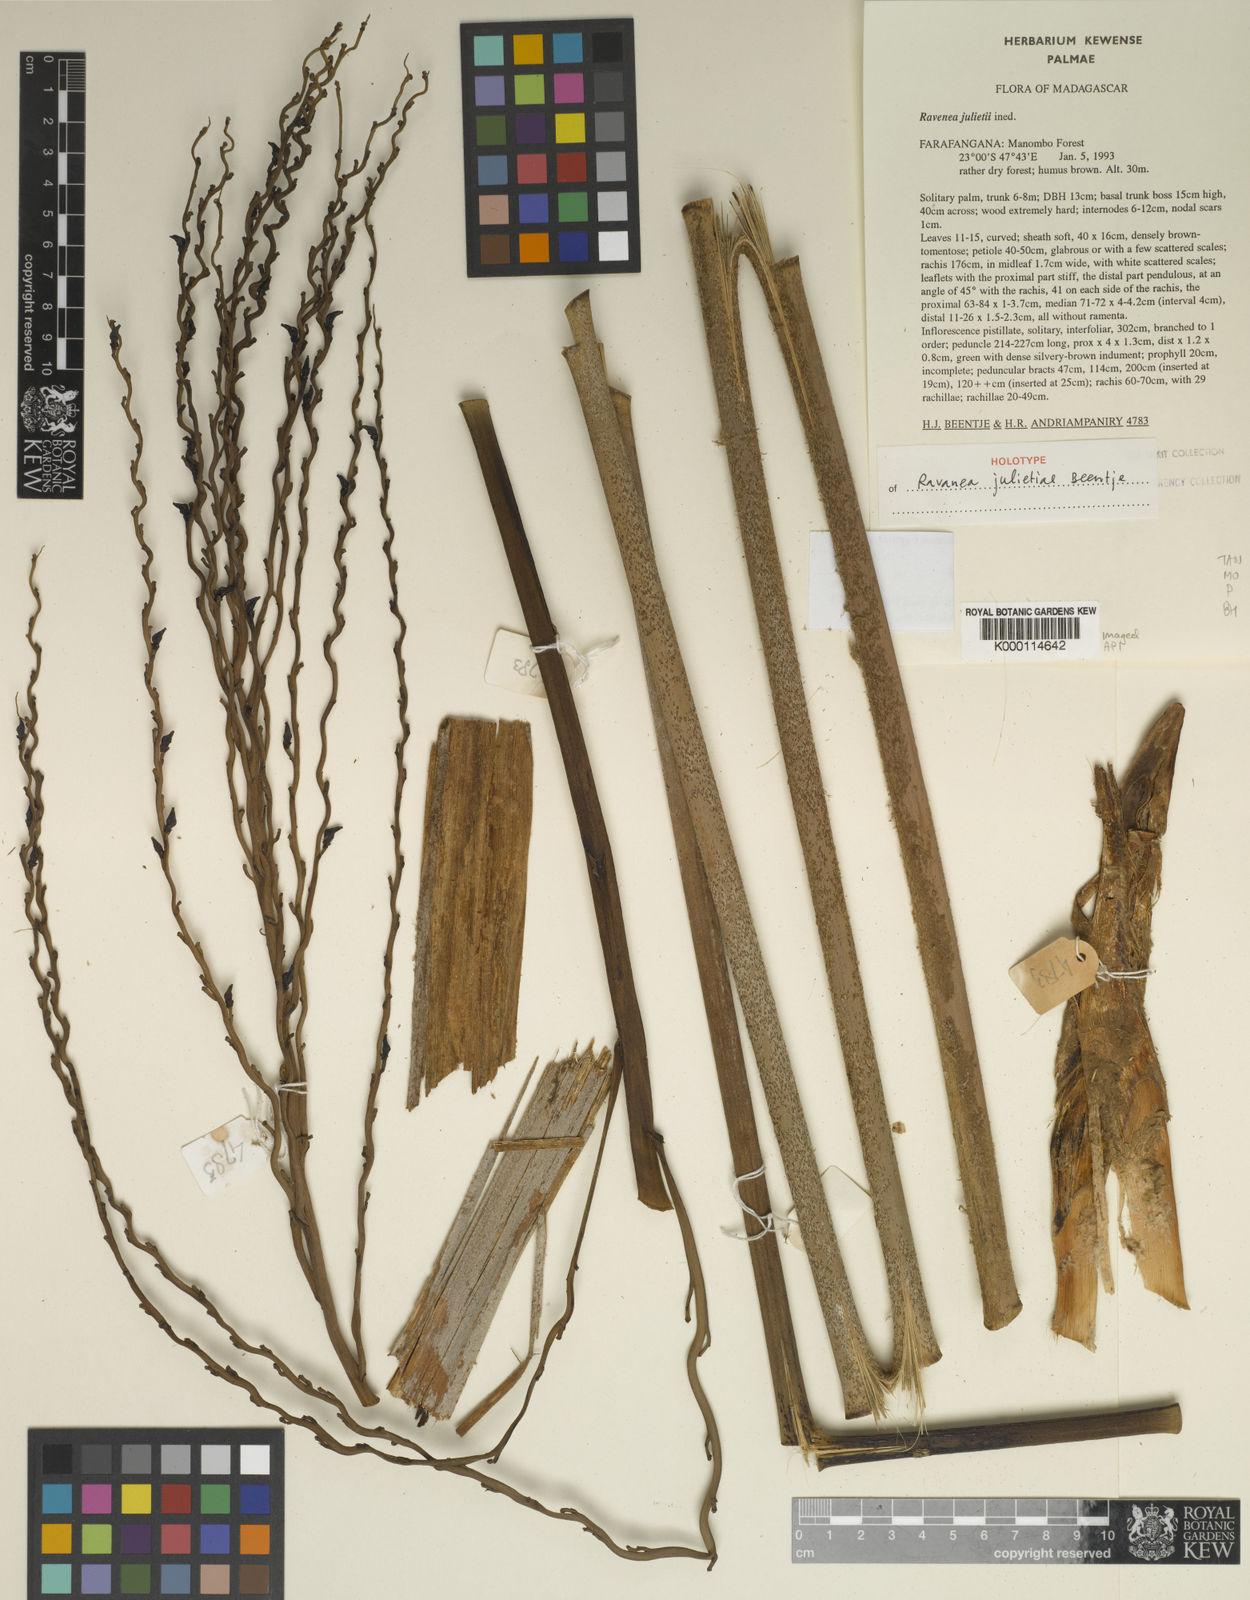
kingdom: Plantae
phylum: Tracheophyta
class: Liliopsida
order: Arecales
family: Arecaceae
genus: Ravenea
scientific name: Ravenea julietiae
